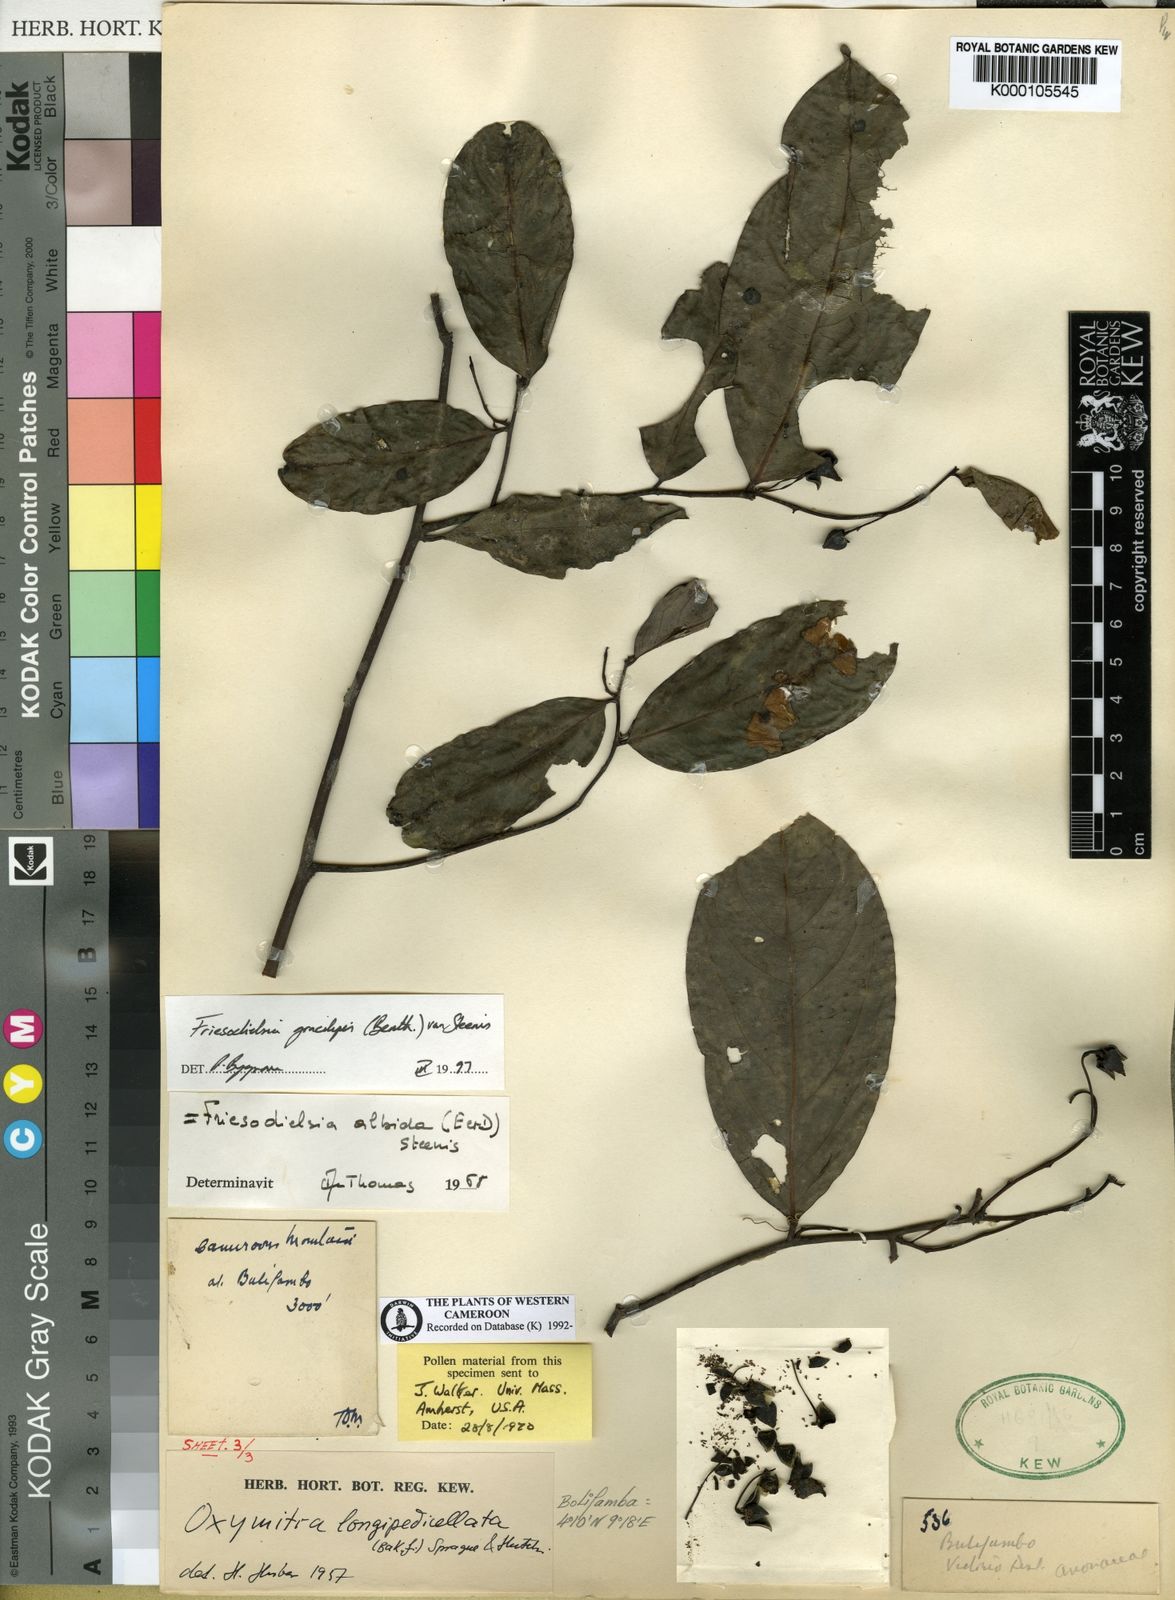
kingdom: Plantae
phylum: Tracheophyta
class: Magnoliopsida
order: Magnoliales
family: Annonaceae
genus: Friesodielsia
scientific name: Friesodielsia gracilipes
